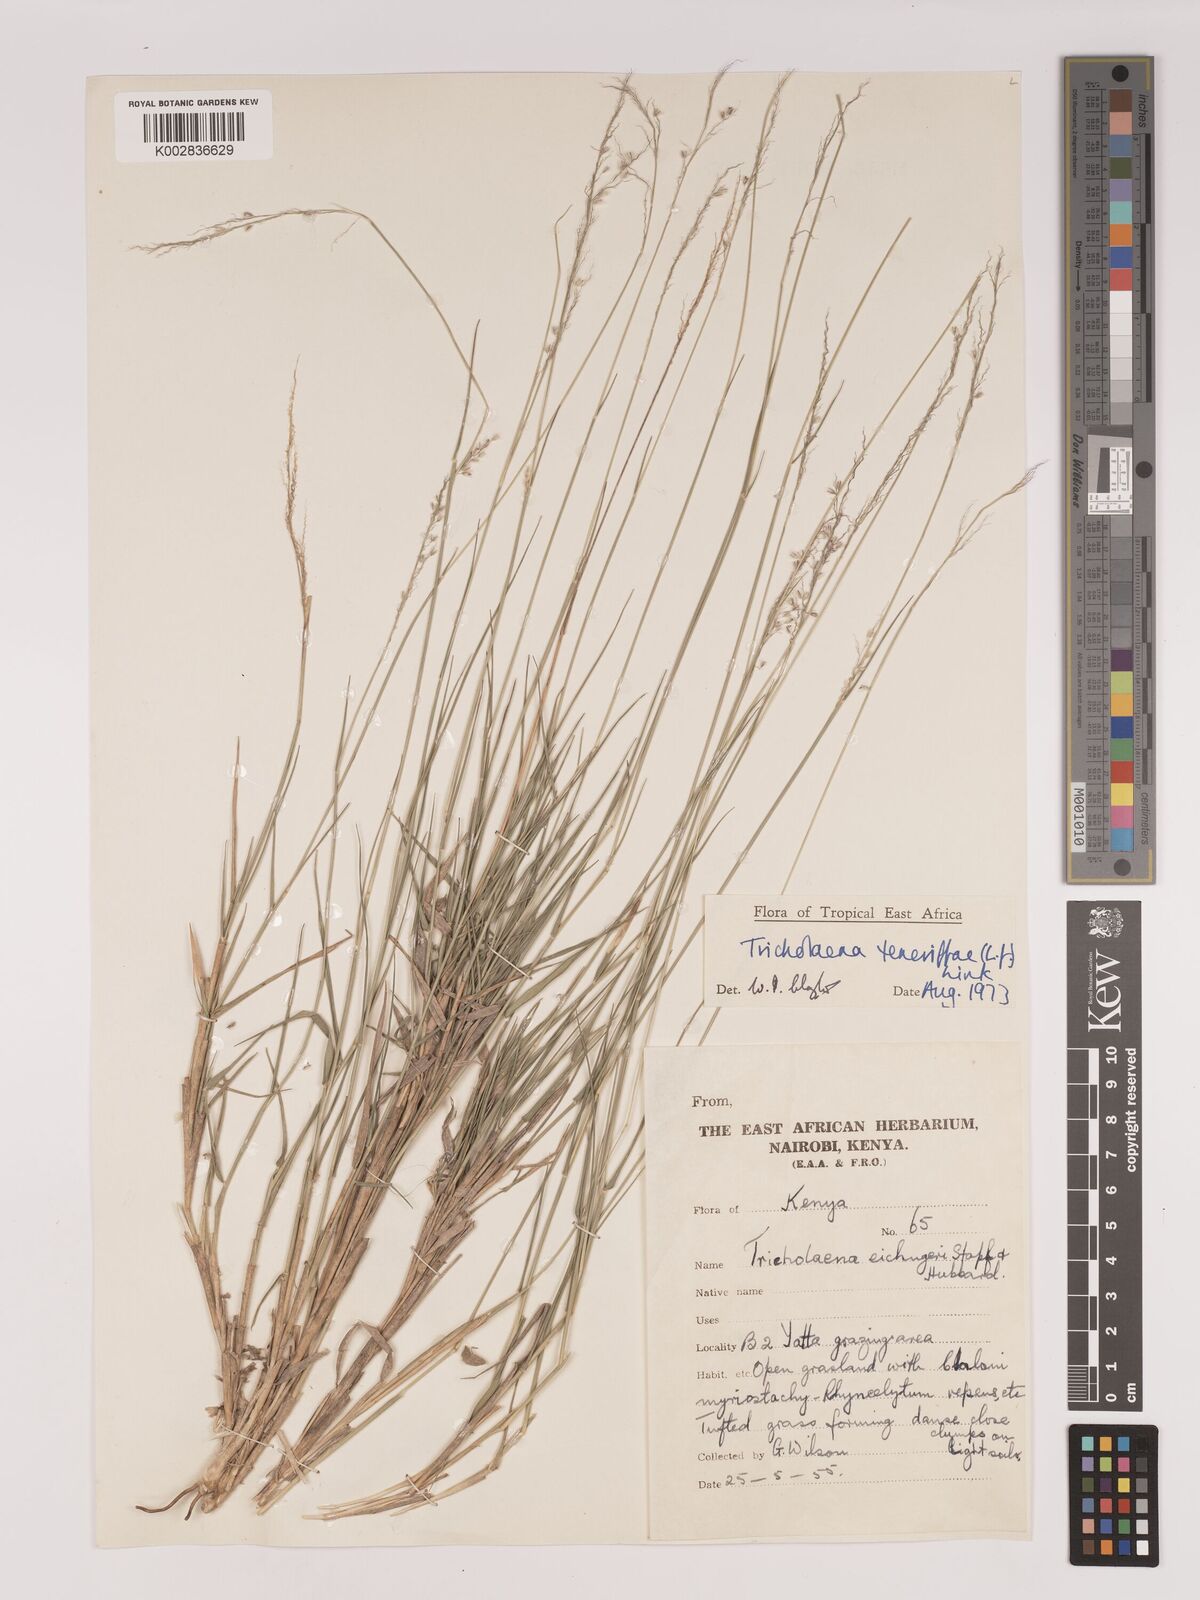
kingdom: Plantae
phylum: Tracheophyta
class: Liliopsida
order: Poales
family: Poaceae
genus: Tricholaena
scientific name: Tricholaena teneriffae
